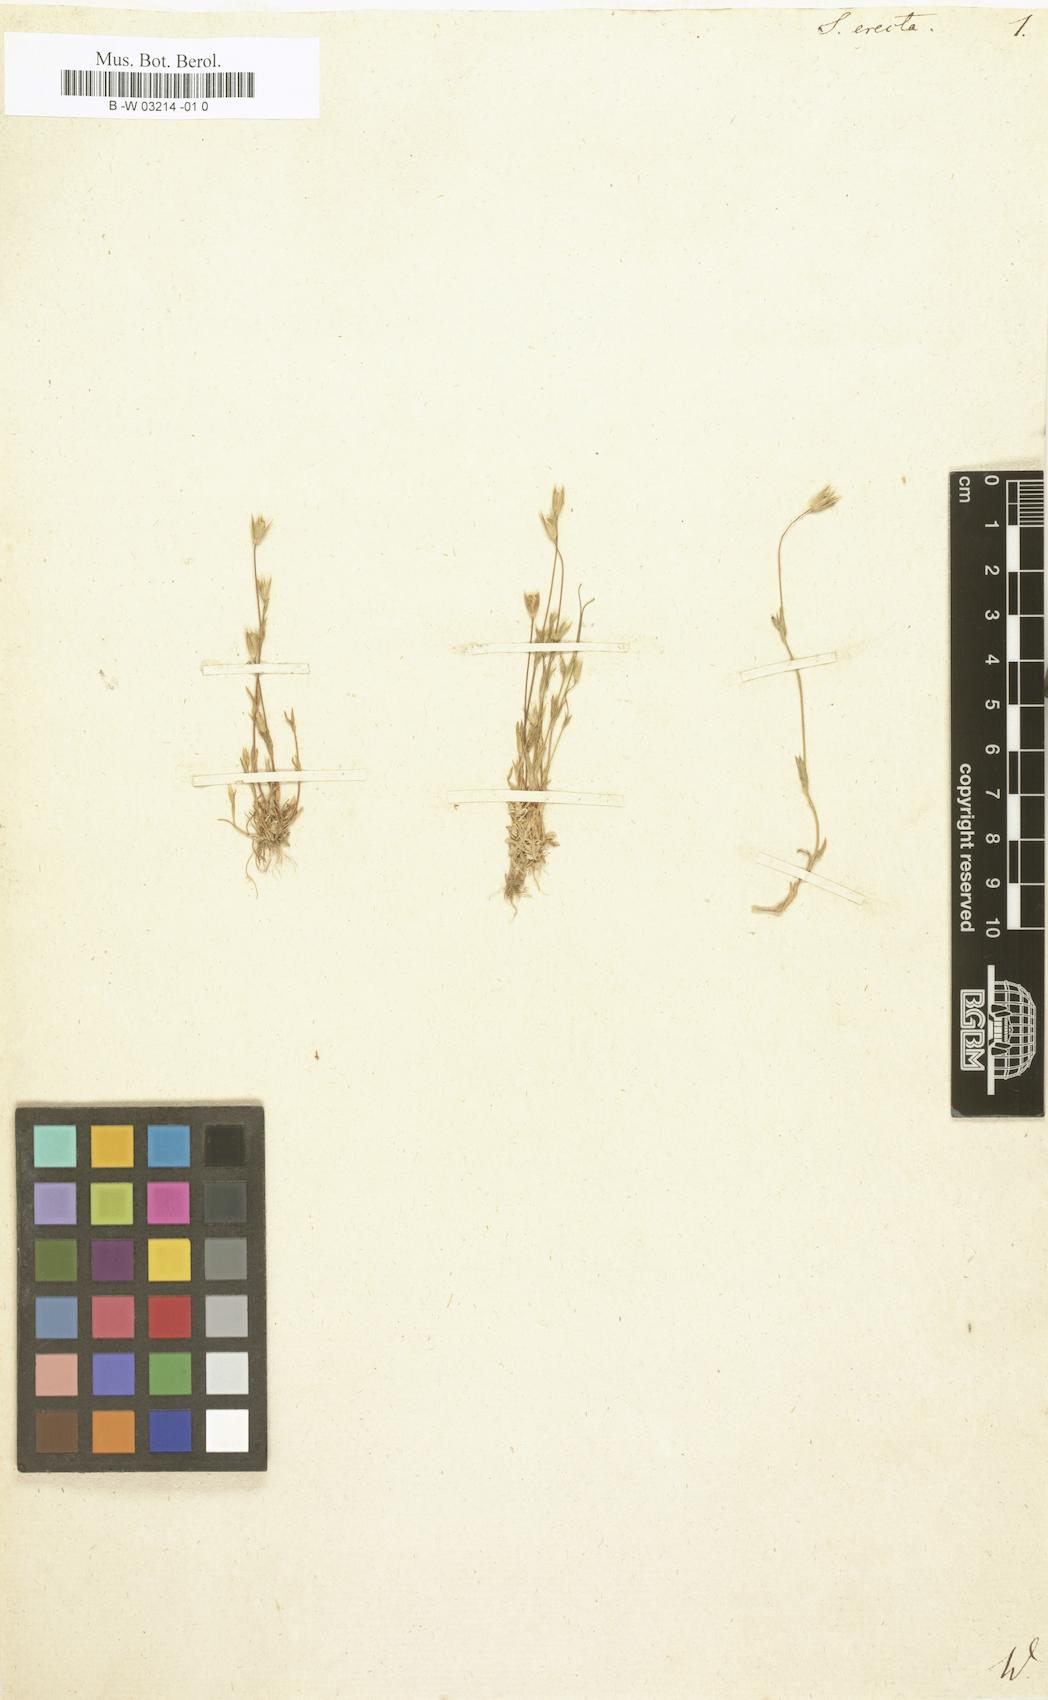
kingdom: Plantae
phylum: Tracheophyta
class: Magnoliopsida
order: Caryophyllales
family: Caryophyllaceae
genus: Moenchia
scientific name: Moenchia erecta
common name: Upright chickweed
